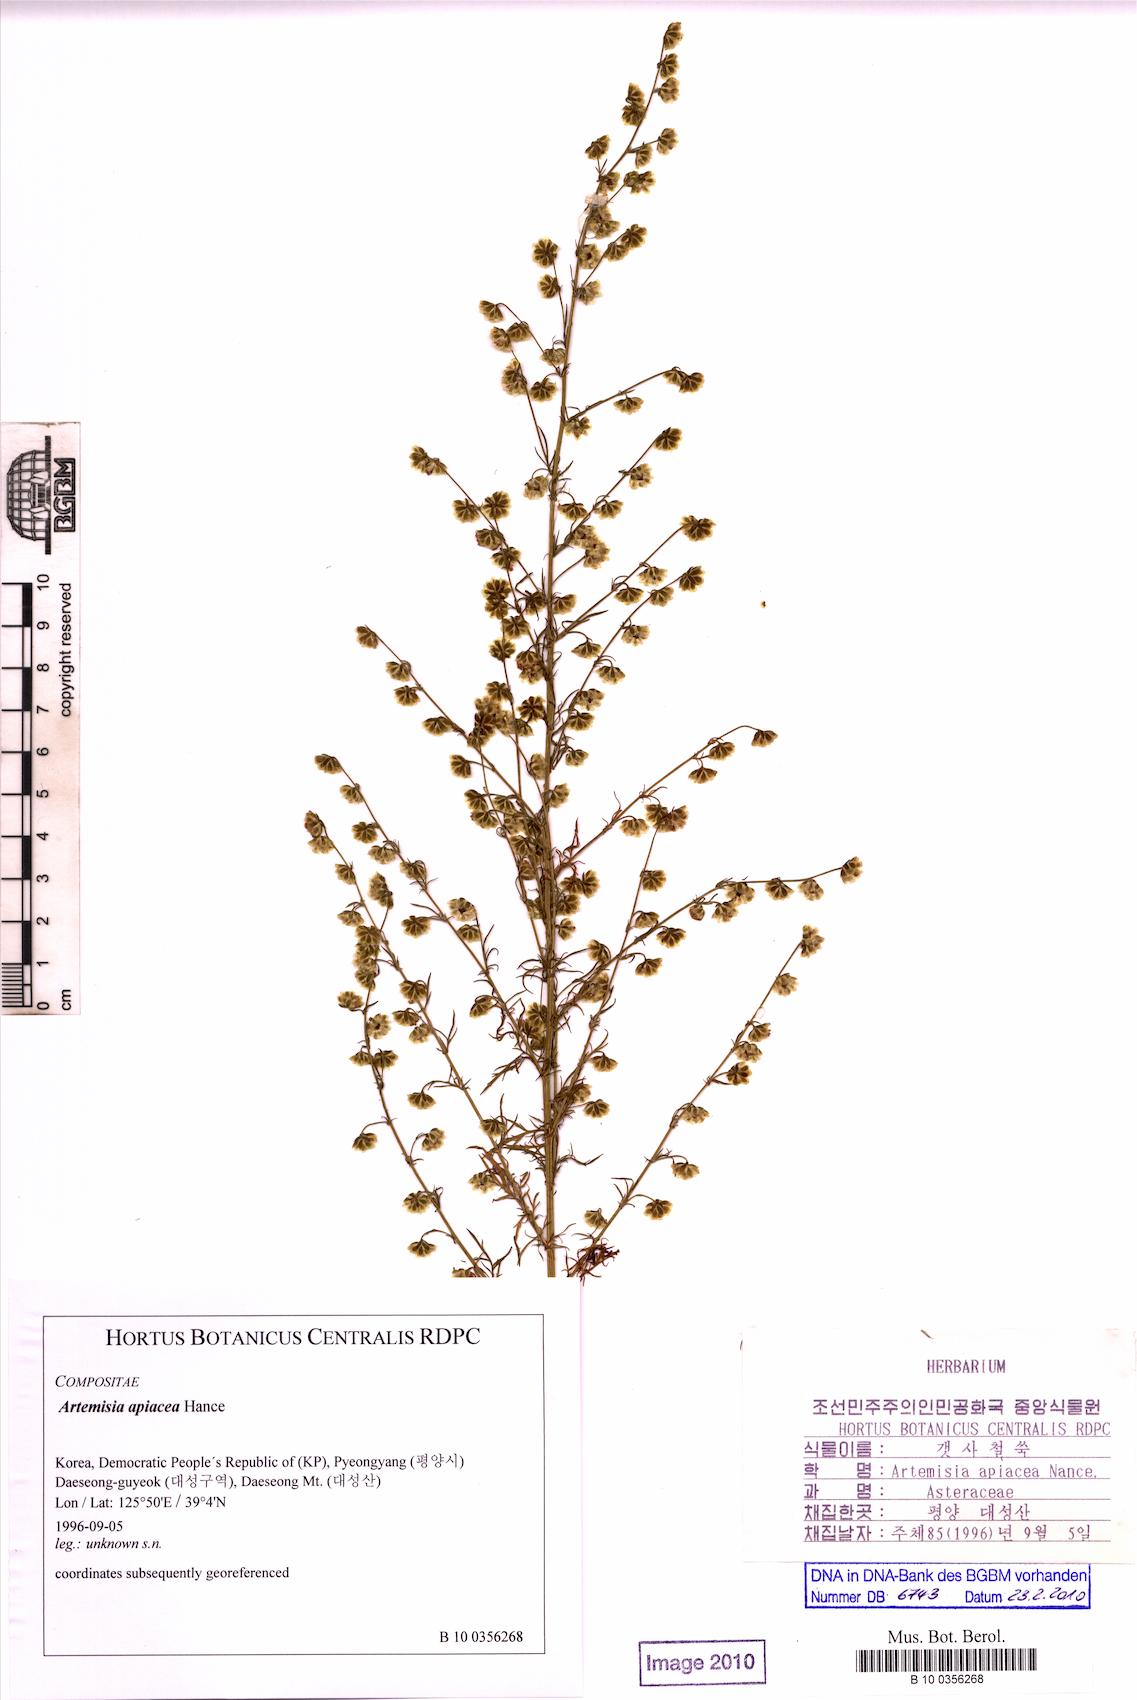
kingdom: Plantae
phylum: Tracheophyta
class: Magnoliopsida
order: Asterales
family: Asteraceae
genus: Artemisia
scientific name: Artemisia caruifolia
